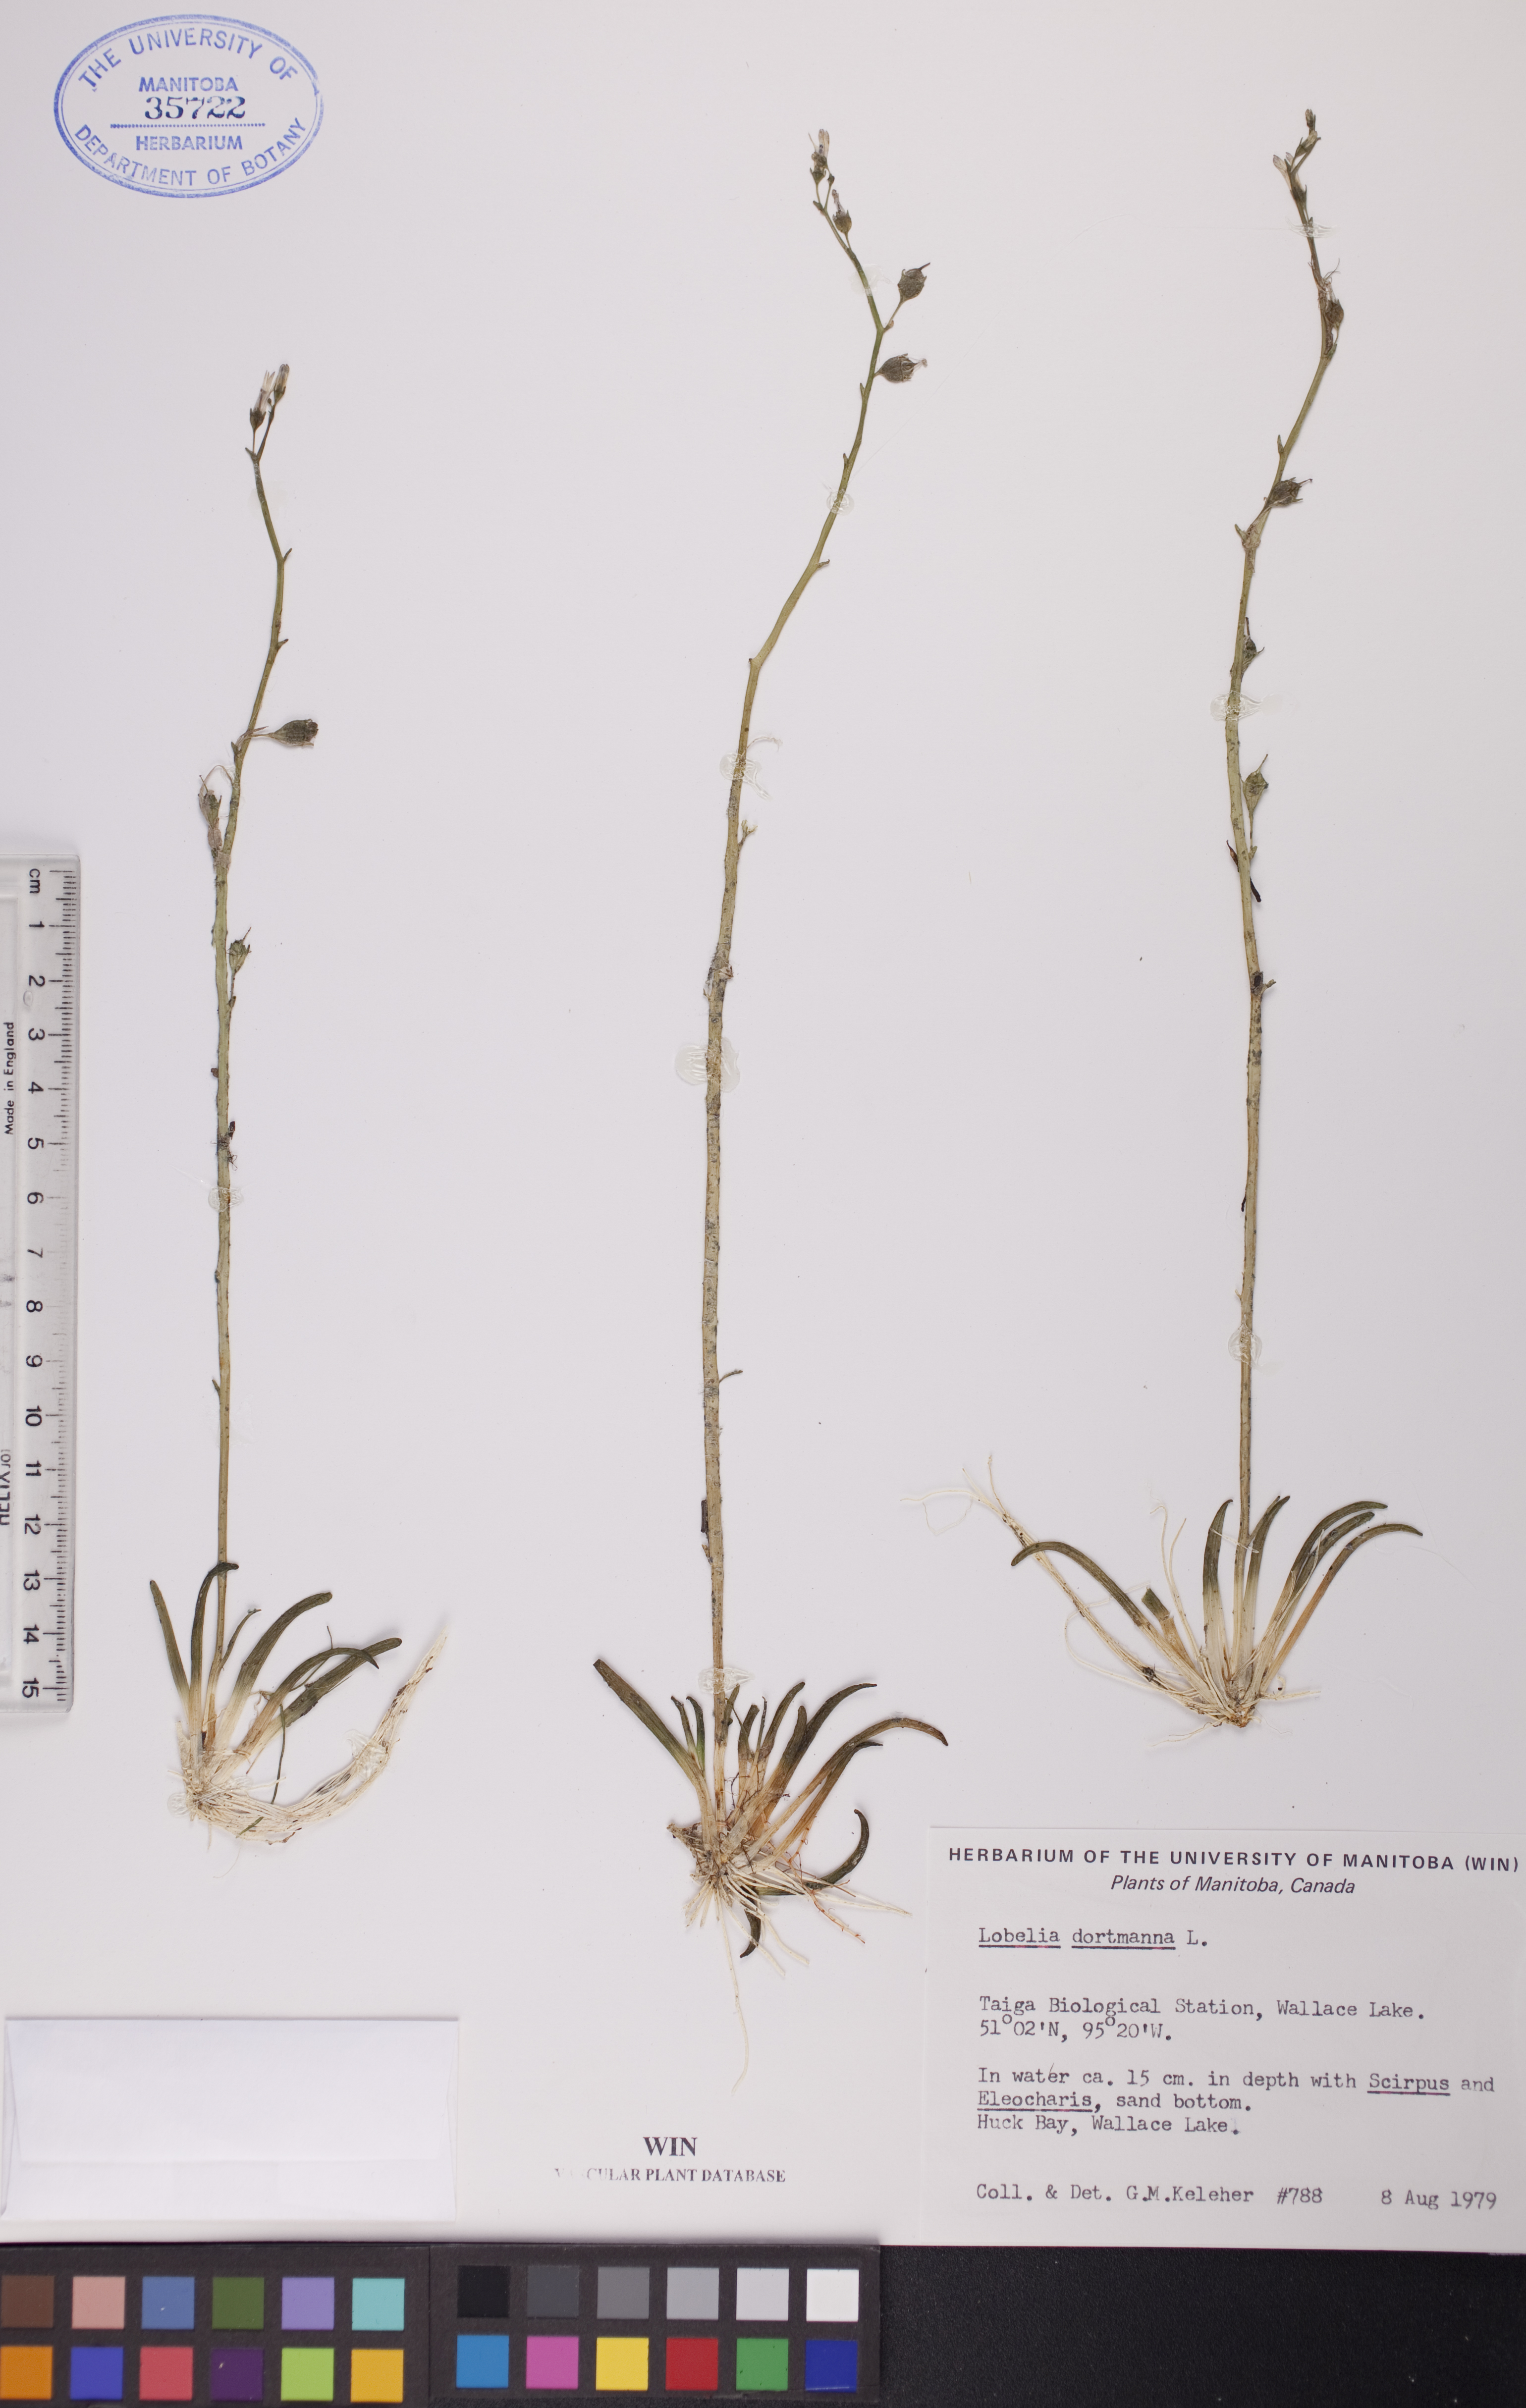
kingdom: Plantae
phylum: Tracheophyta
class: Magnoliopsida
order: Asterales
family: Campanulaceae
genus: Lobelia
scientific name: Lobelia dortmanna
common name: Water lobelia
